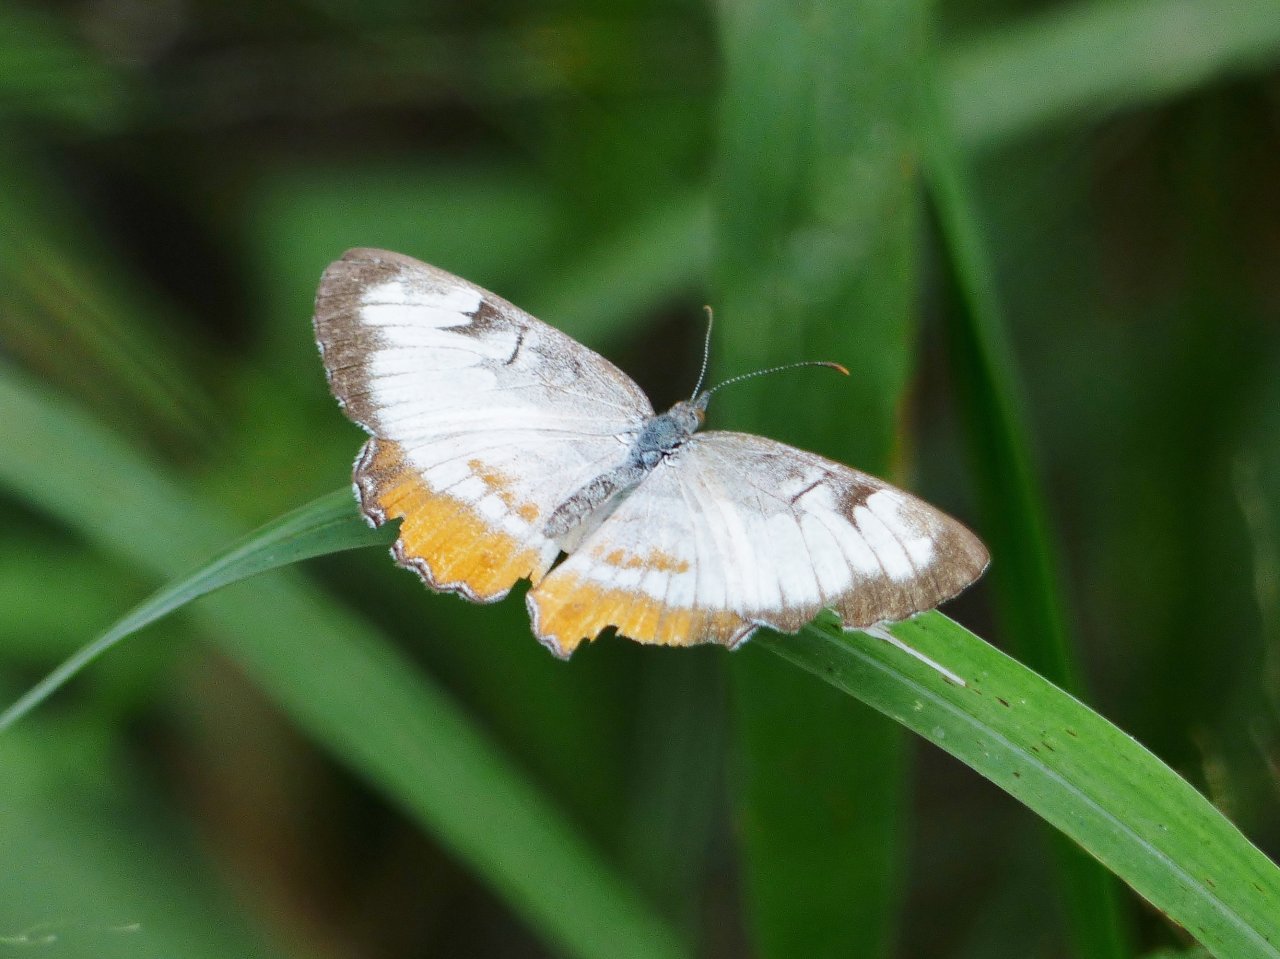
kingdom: Animalia
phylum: Arthropoda
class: Insecta
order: Lepidoptera
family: Nymphalidae
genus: Mestra
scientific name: Mestra amymone
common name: Common Mestra
